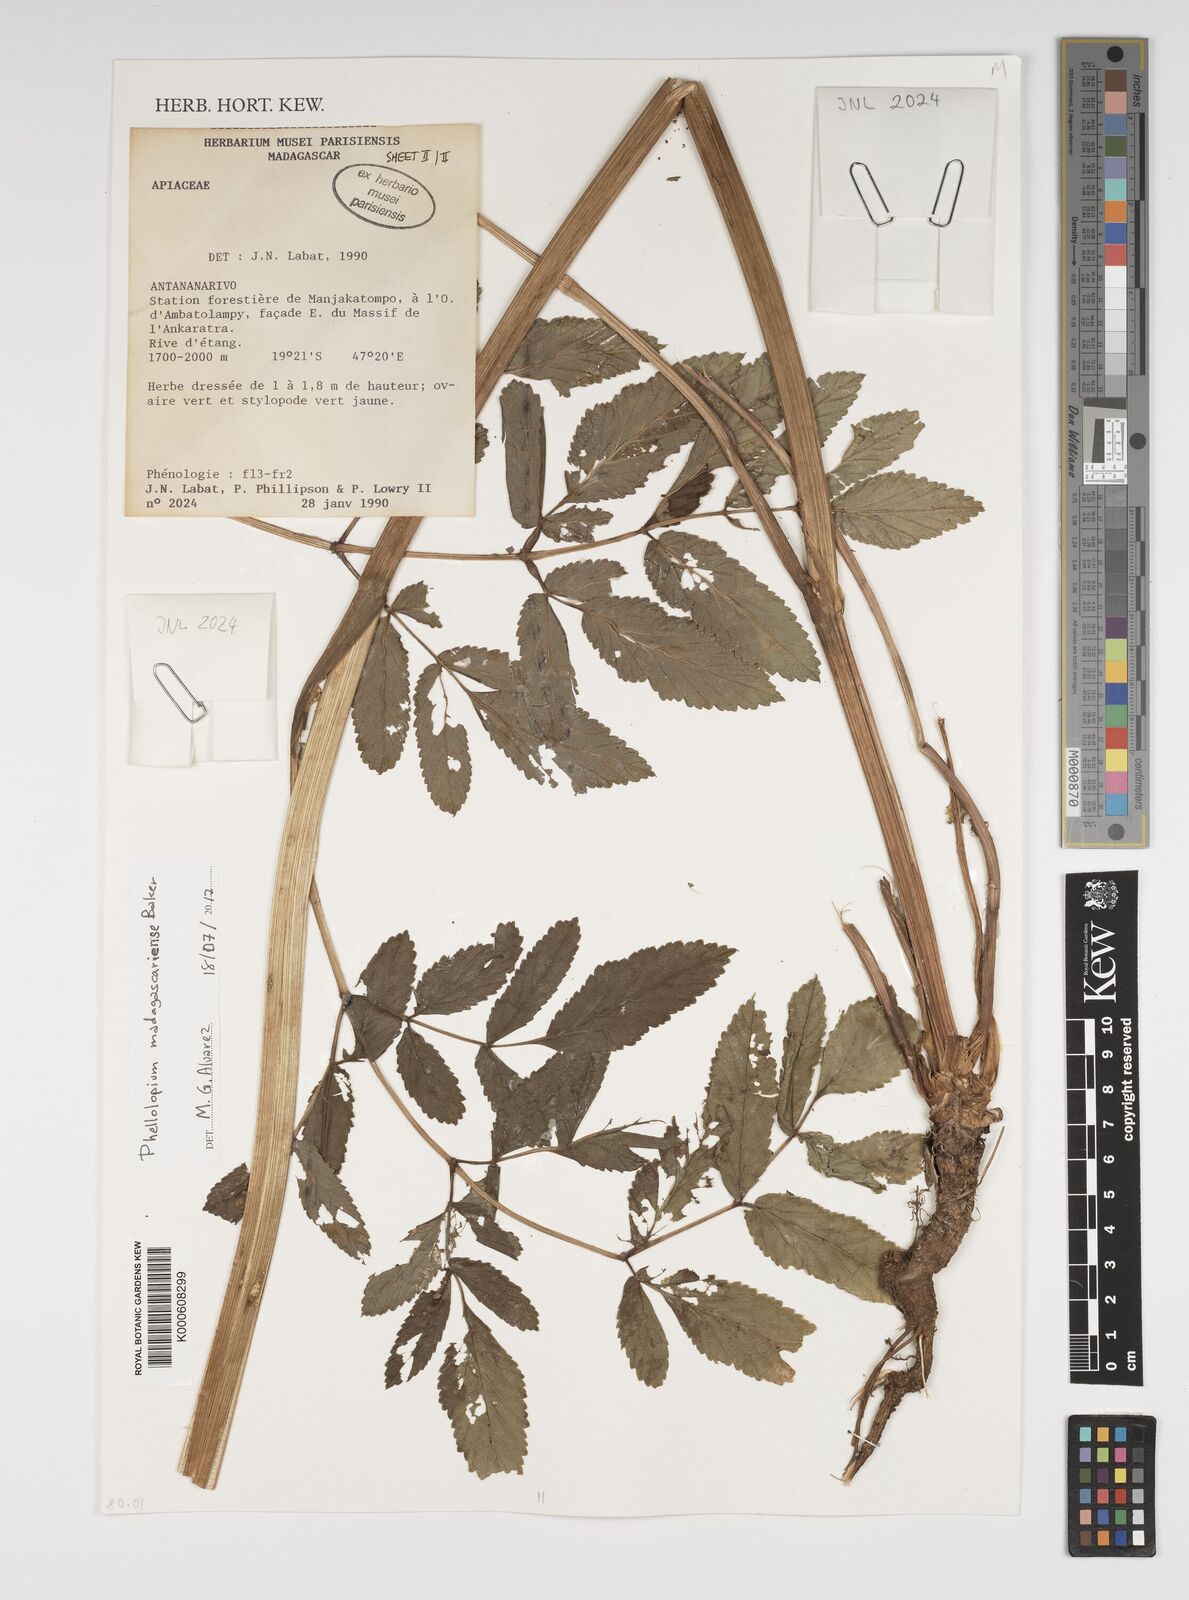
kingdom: Plantae
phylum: Tracheophyta
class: Magnoliopsida
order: Apiales
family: Apiaceae
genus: Phellolophium
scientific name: Phellolophium madagascariense
